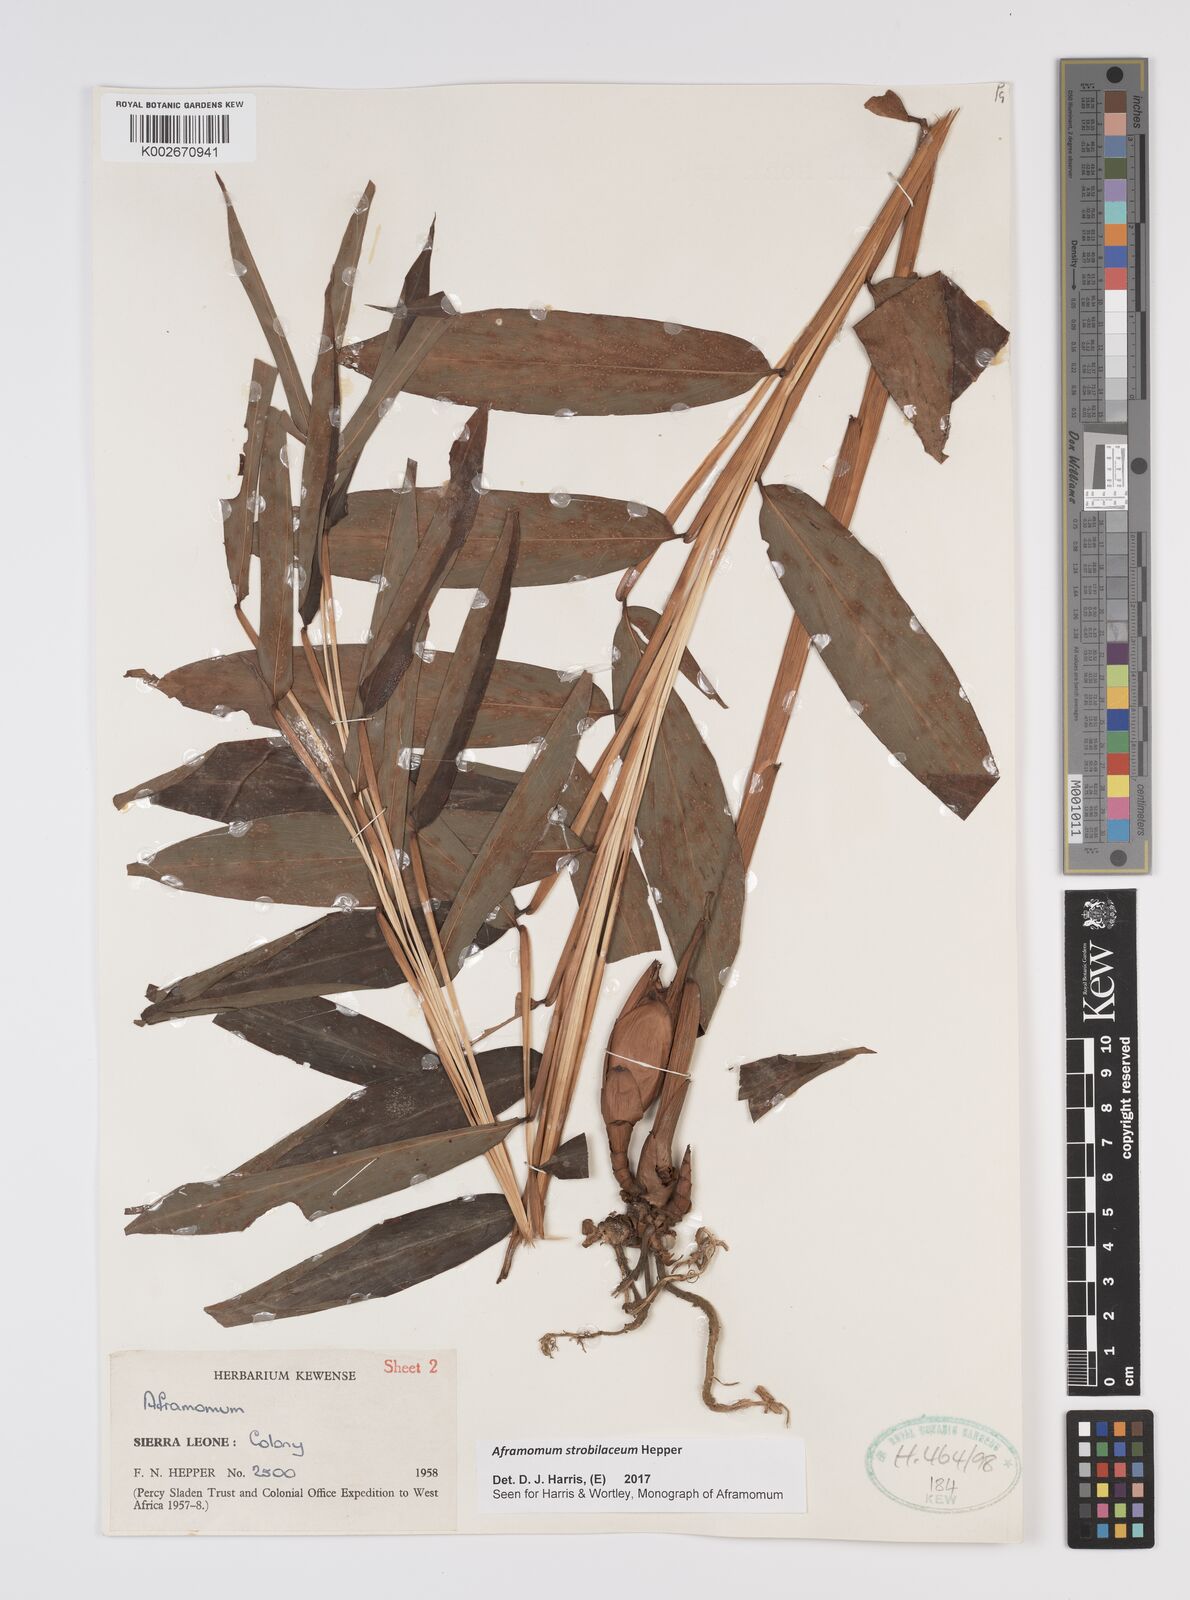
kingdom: Plantae
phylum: Tracheophyta
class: Liliopsida
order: Zingiberales
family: Zingiberaceae
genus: Aframomum
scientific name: Aframomum strobilaceum
